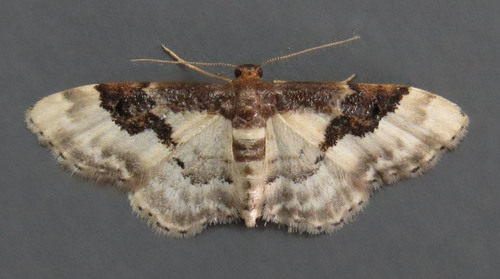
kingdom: Animalia
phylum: Arthropoda
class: Insecta
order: Lepidoptera
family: Geometridae
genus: Idaea
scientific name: Idaea rusticata
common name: Least carpet
